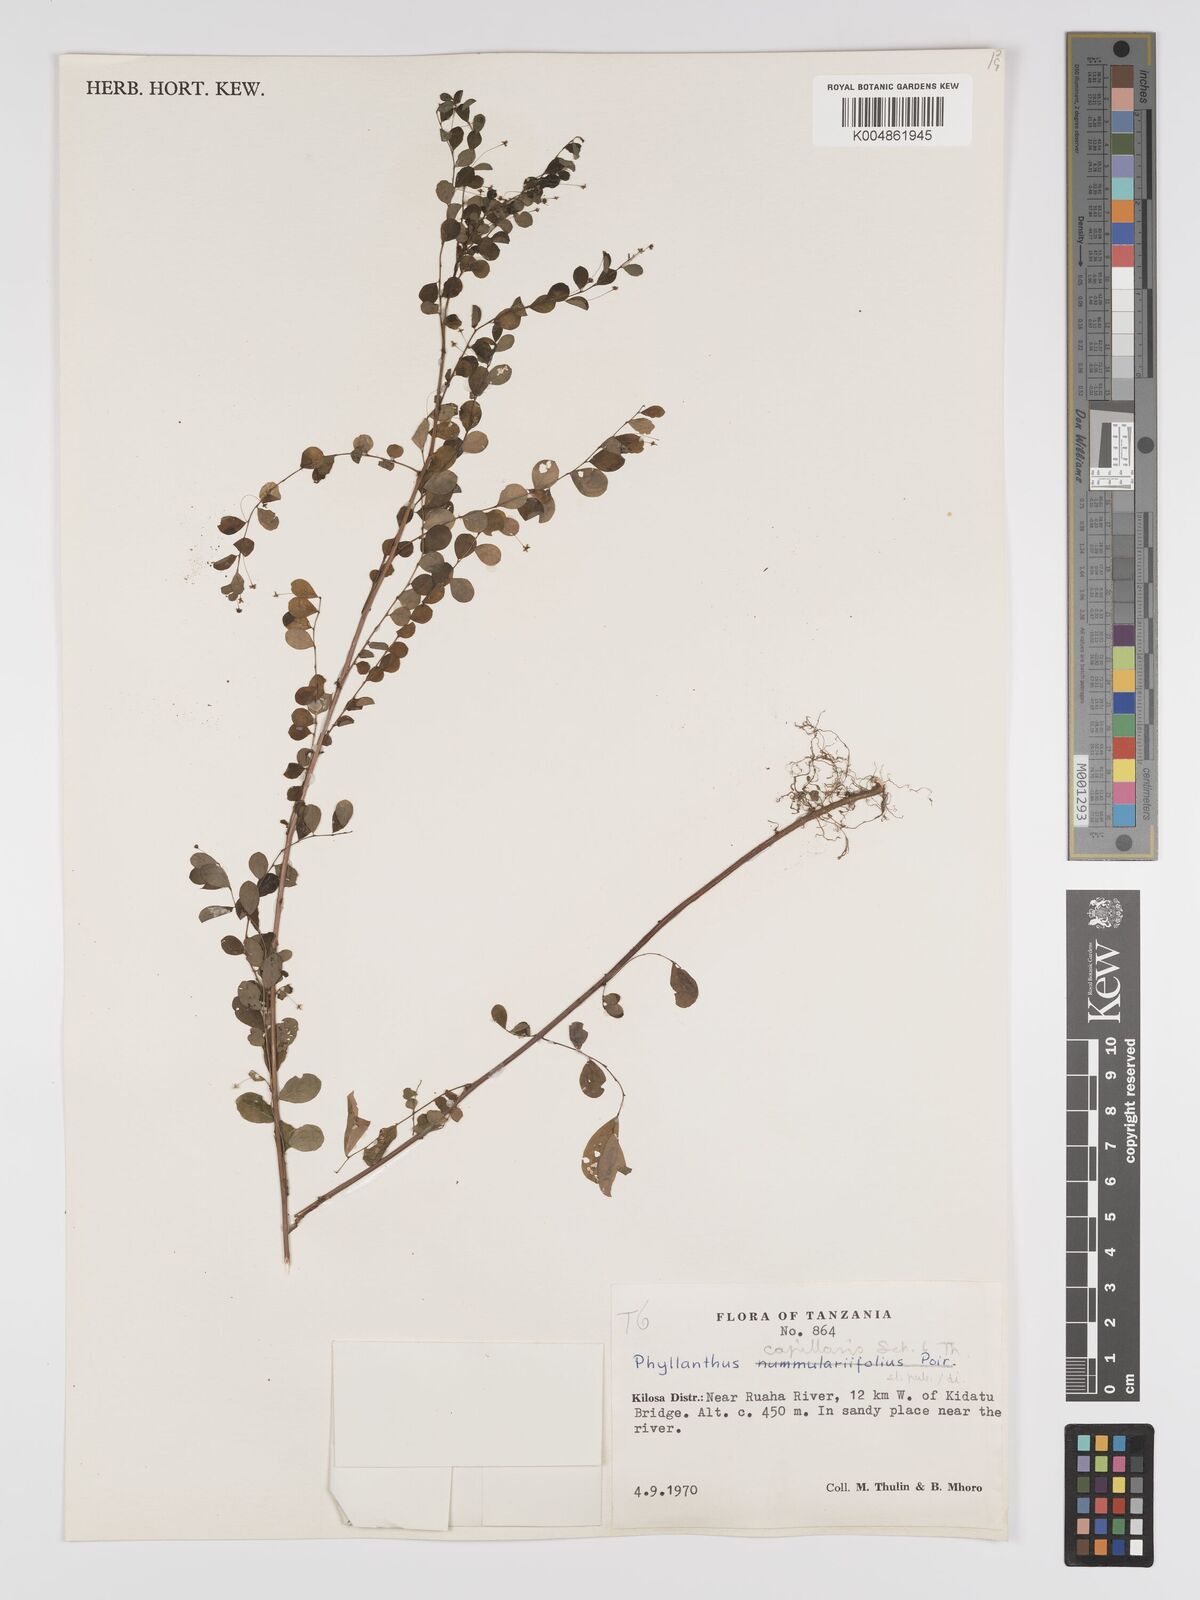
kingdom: Plantae
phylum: Tracheophyta
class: Magnoliopsida
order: Malpighiales
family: Phyllanthaceae
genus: Phyllanthus
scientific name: Phyllanthus nummulariifolius
